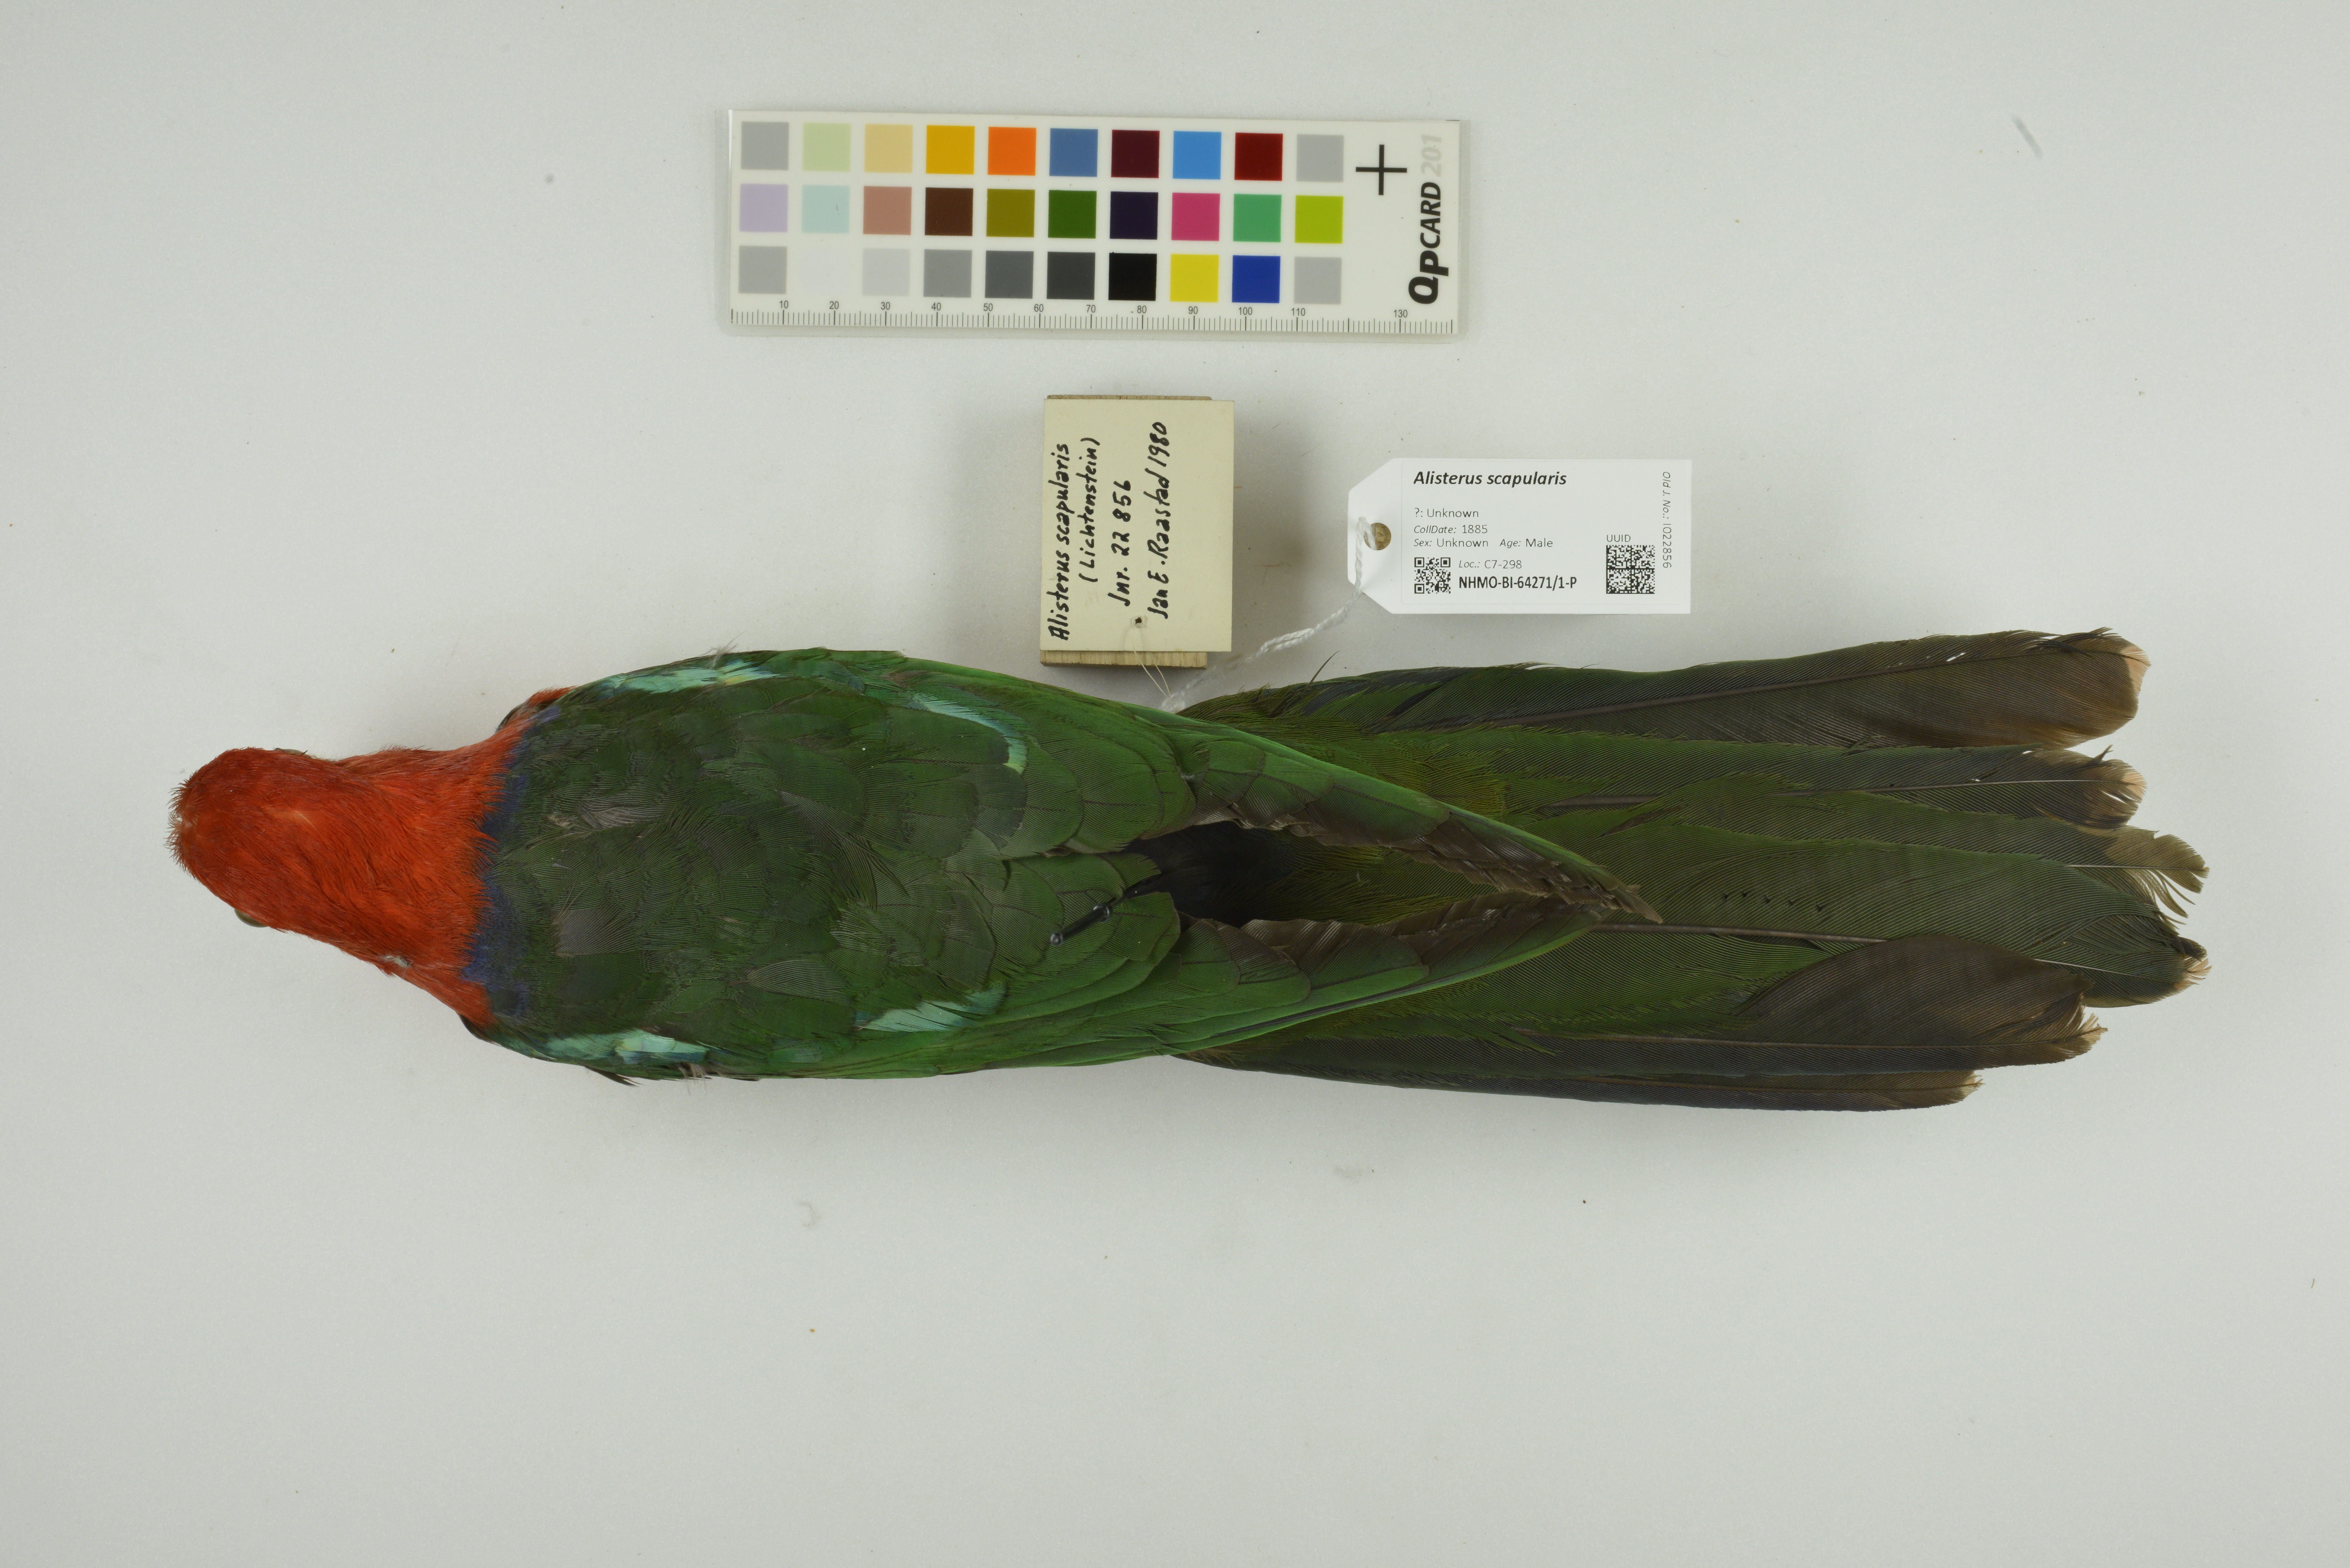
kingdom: Animalia
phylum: Chordata
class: Aves
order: Psittaciformes
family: Psittacidae
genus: Alisterus
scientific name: Alisterus scapularis
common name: Australian king parrot
